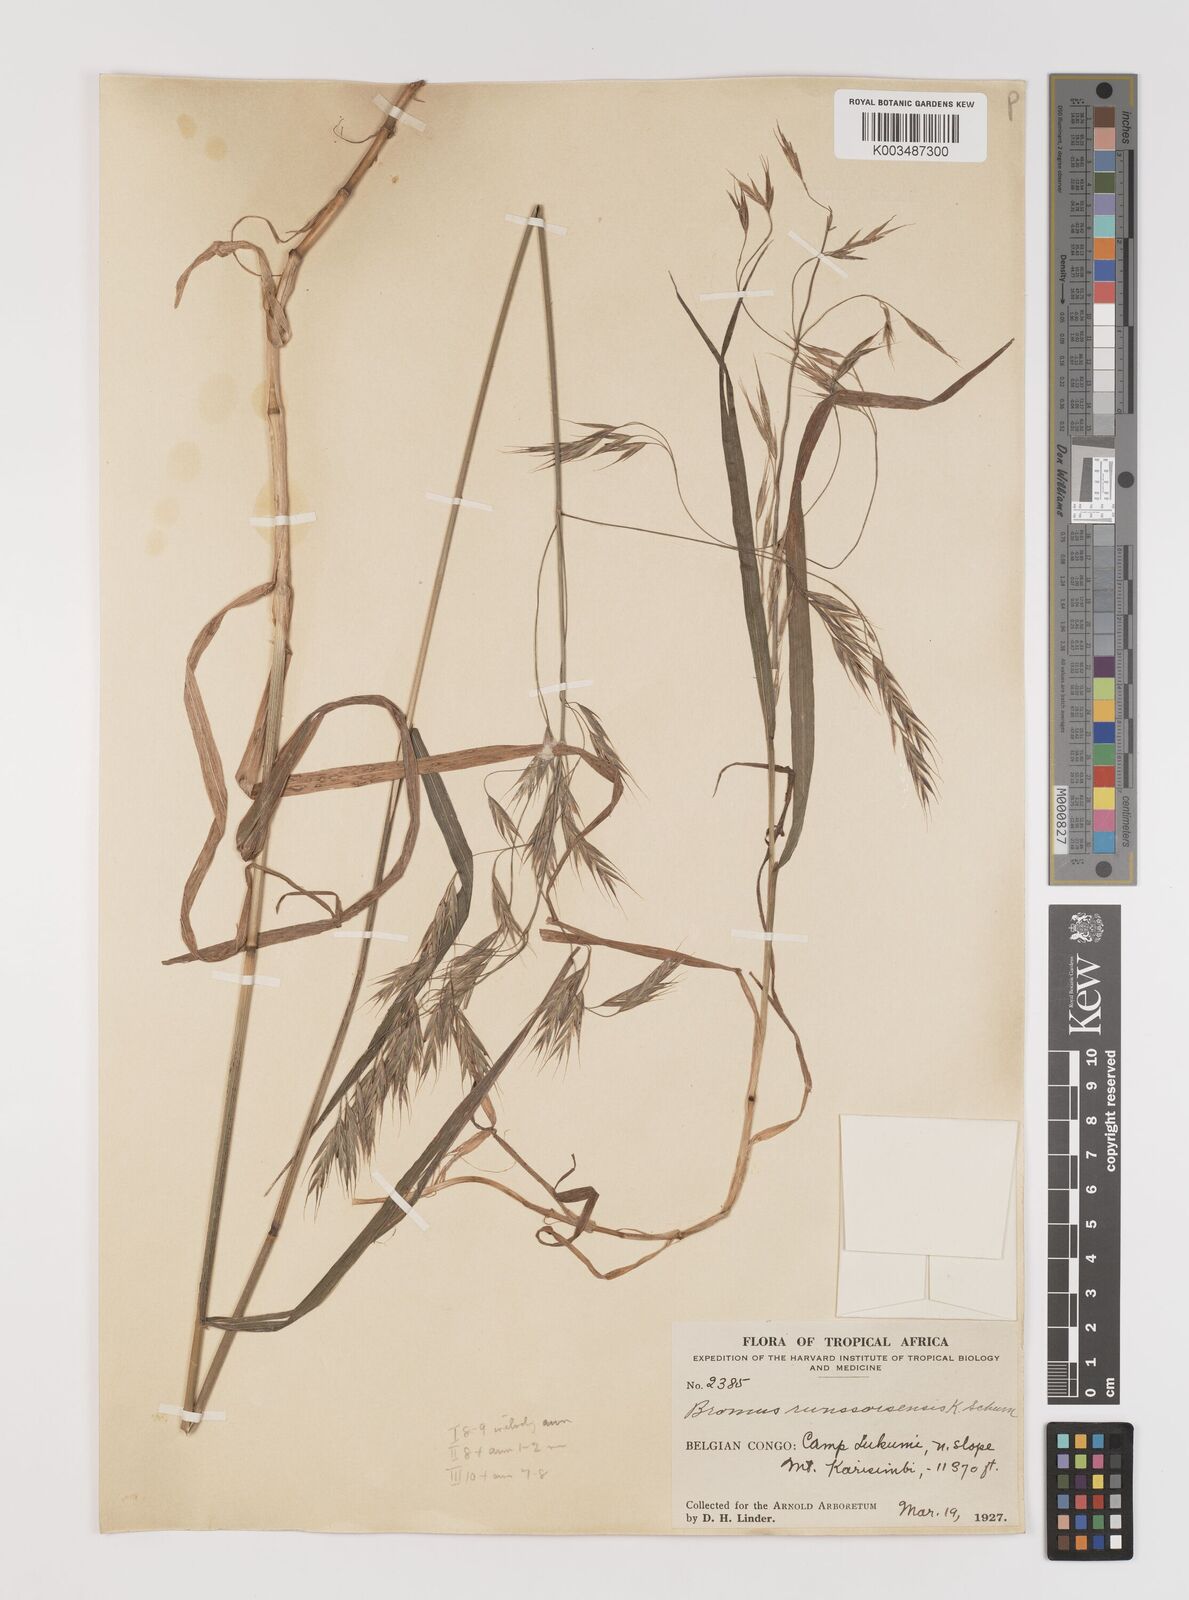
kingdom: Plantae
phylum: Tracheophyta
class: Liliopsida
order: Poales
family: Poaceae
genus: Bromus
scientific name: Bromus leptoclados
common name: Mountain bromegrass
